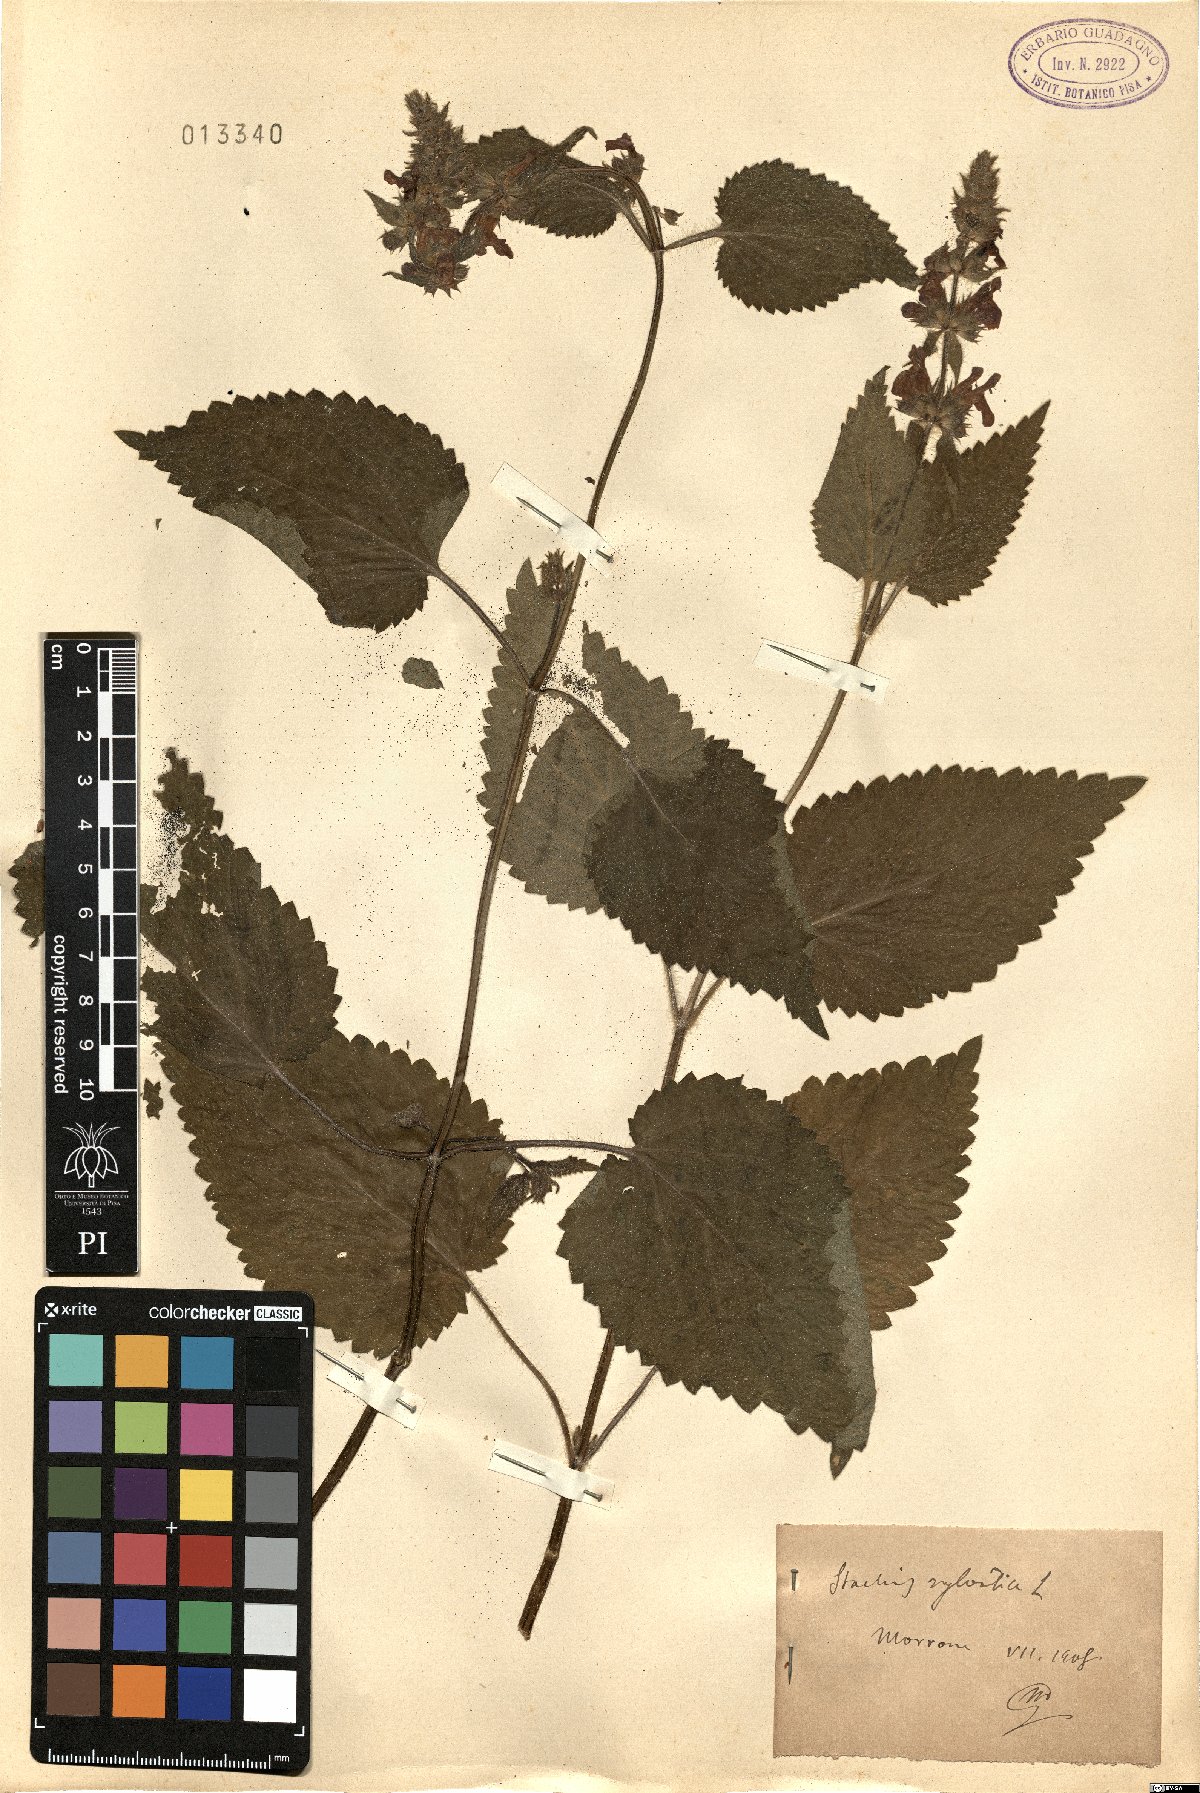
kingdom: Plantae
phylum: Tracheophyta
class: Magnoliopsida
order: Lamiales
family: Lamiaceae
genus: Stachys
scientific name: Stachys sylvatica
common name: Hedge woundwort
